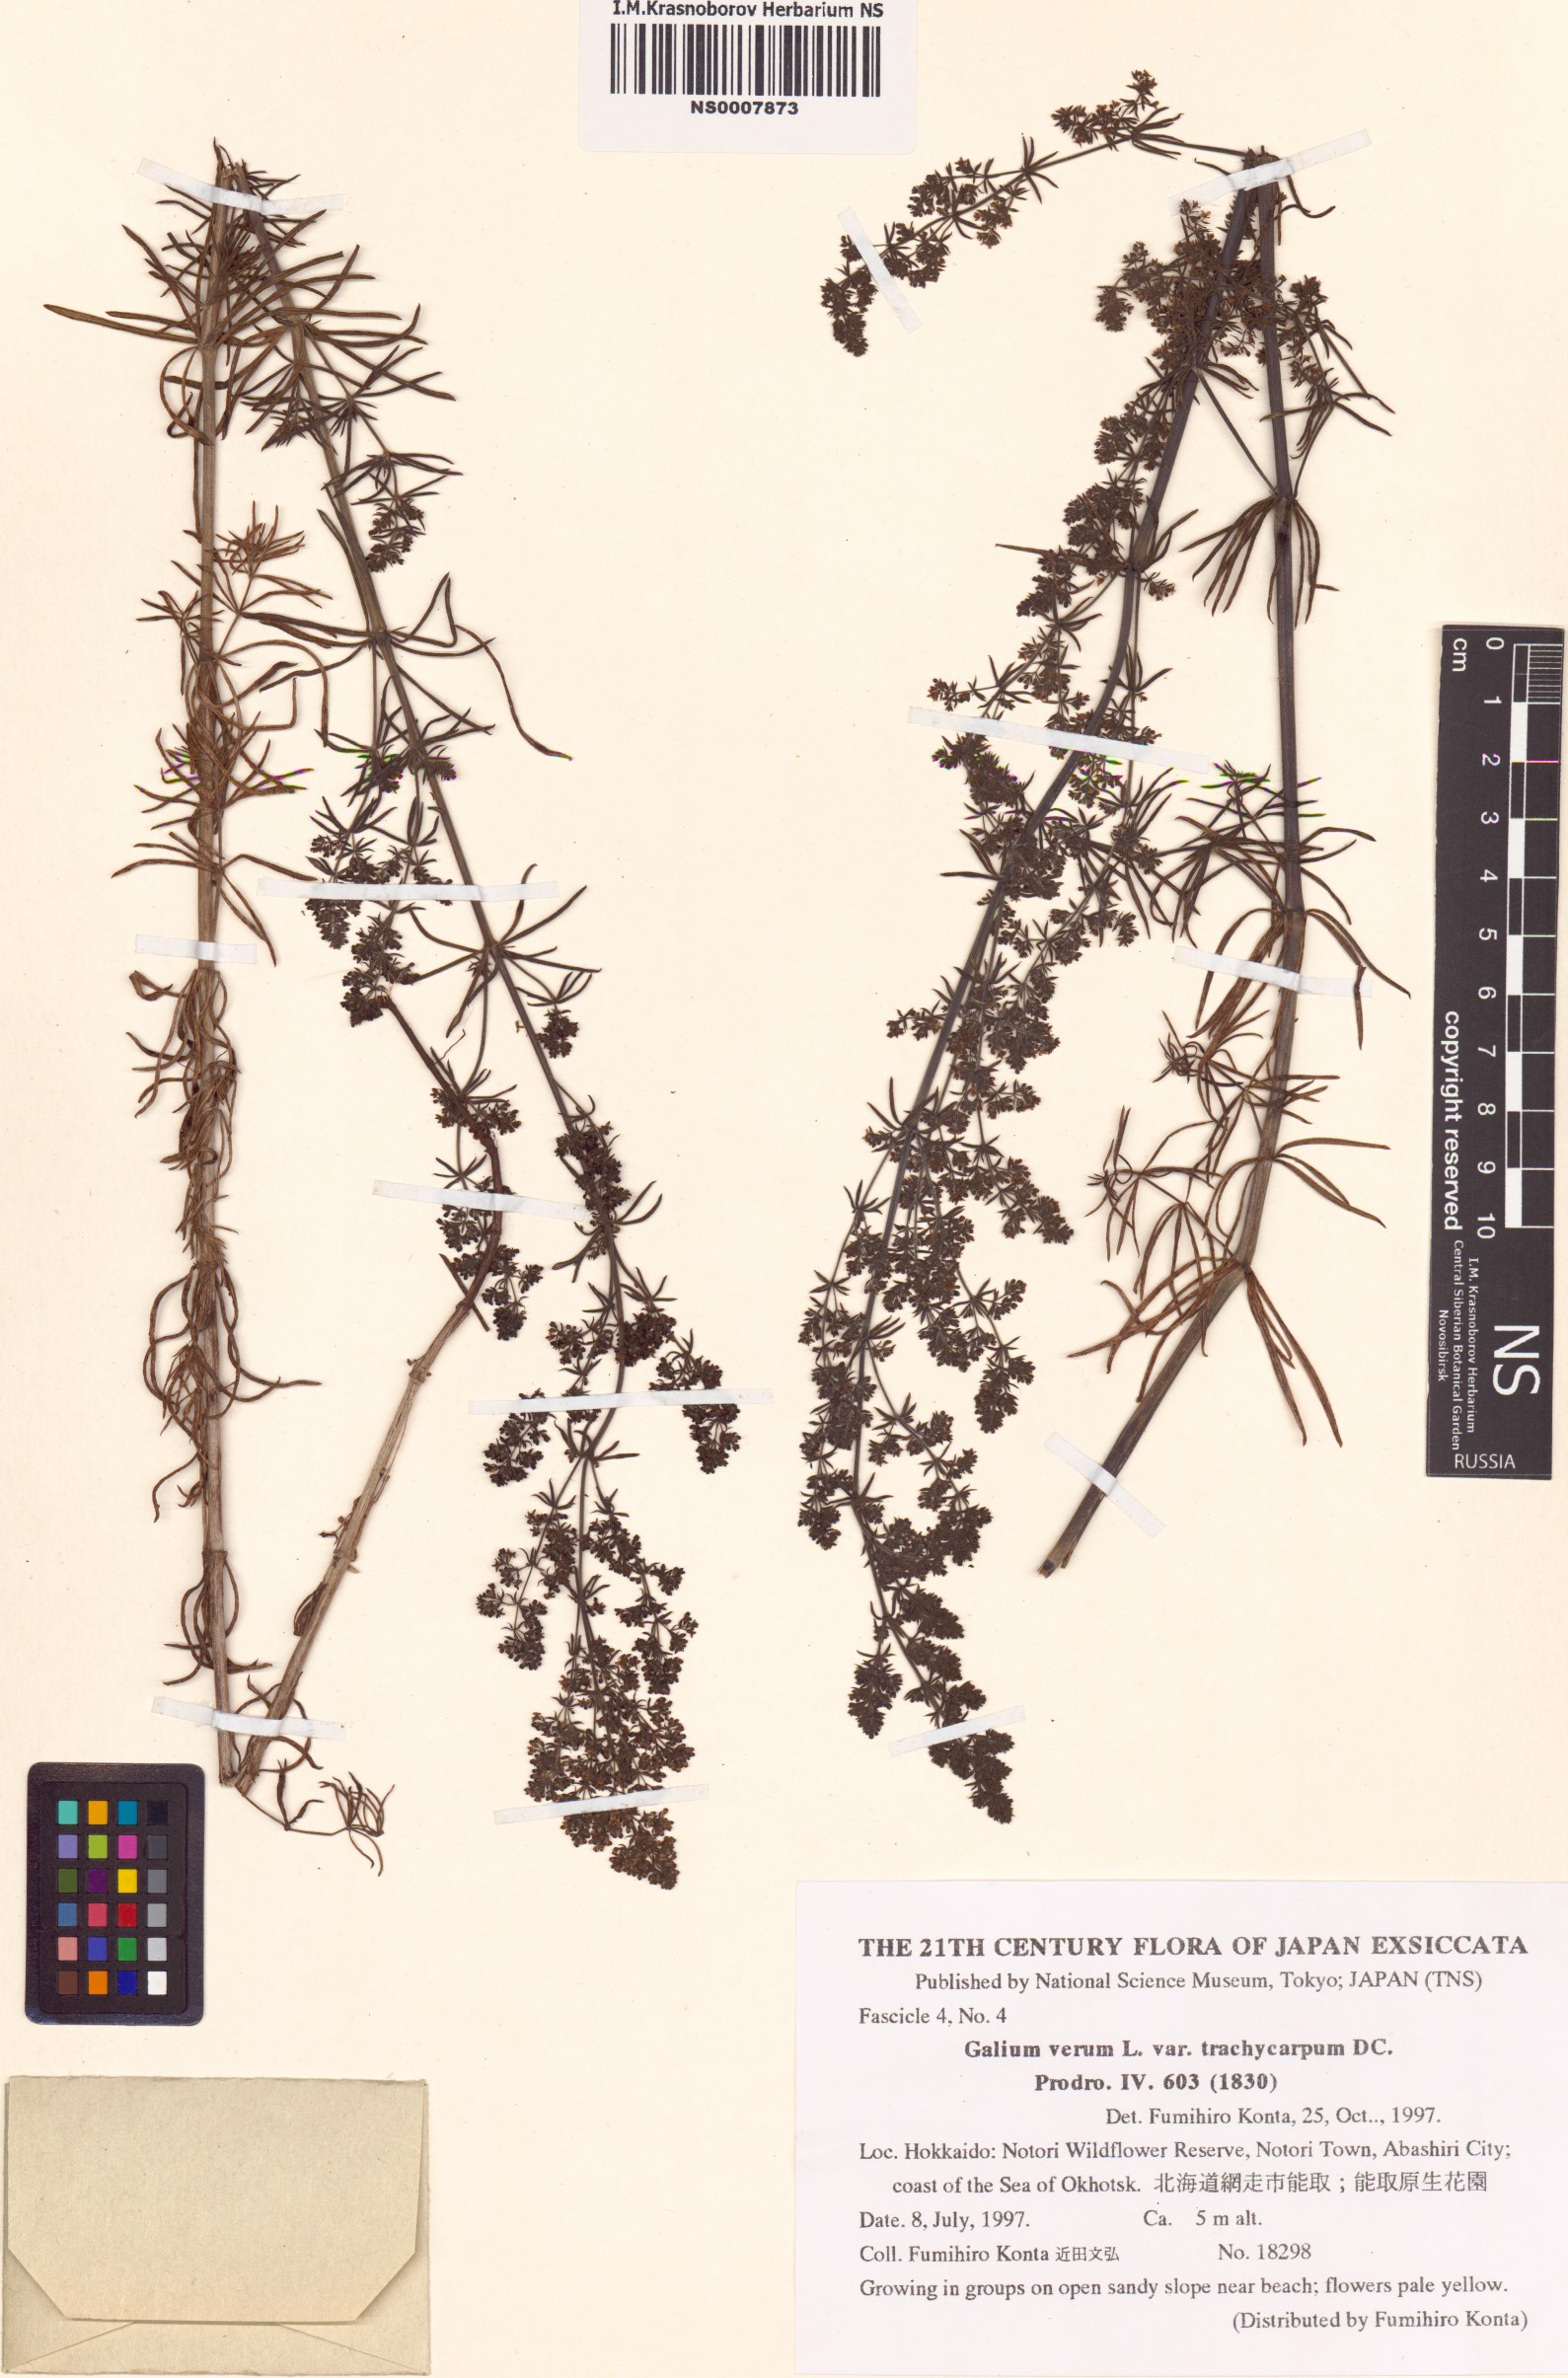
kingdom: Plantae
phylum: Tracheophyta
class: Magnoliopsida
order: Gentianales
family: Rubiaceae
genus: Galium
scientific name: Galium verum
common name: Lady's bedstraw
